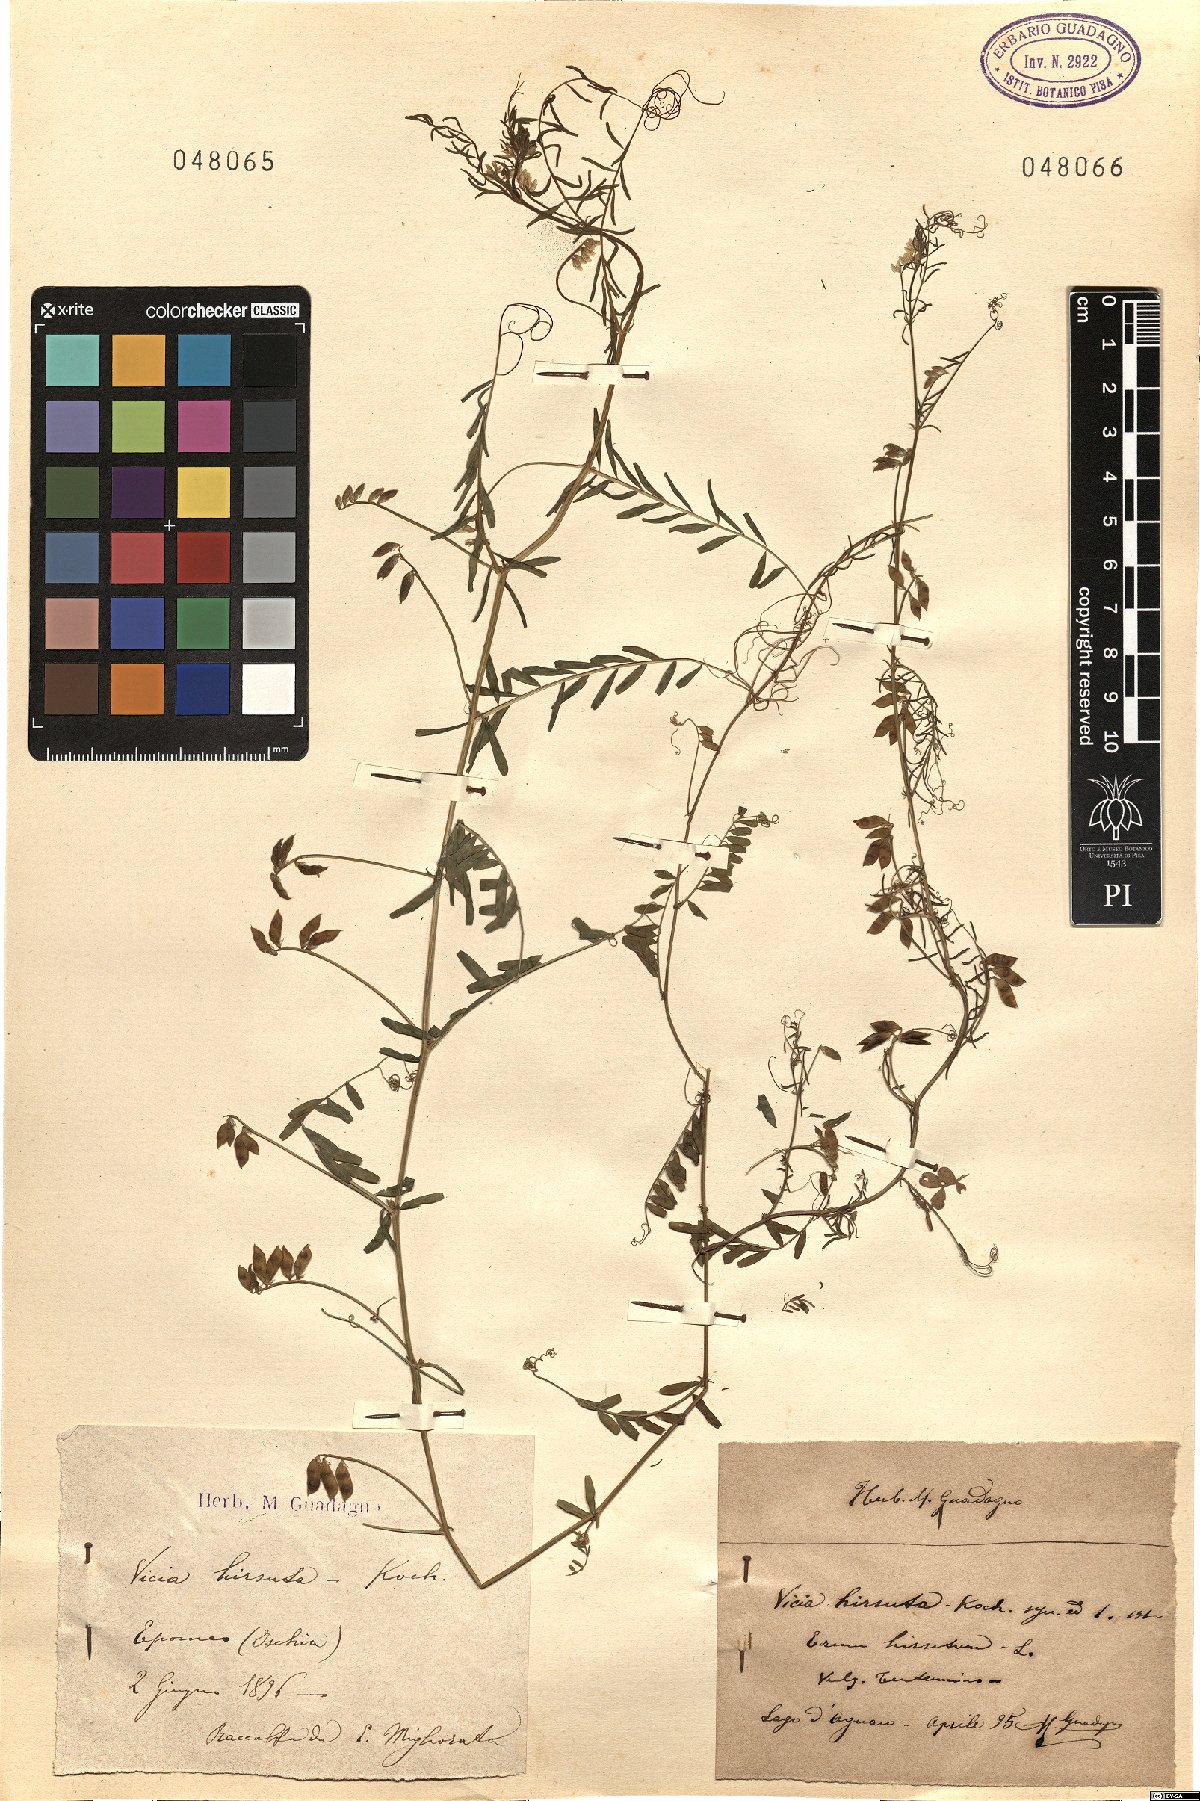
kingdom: Plantae
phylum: Tracheophyta
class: Magnoliopsida
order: Fabales
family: Fabaceae
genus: Vicia
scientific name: Vicia hirsuta
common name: Tiny vetch
